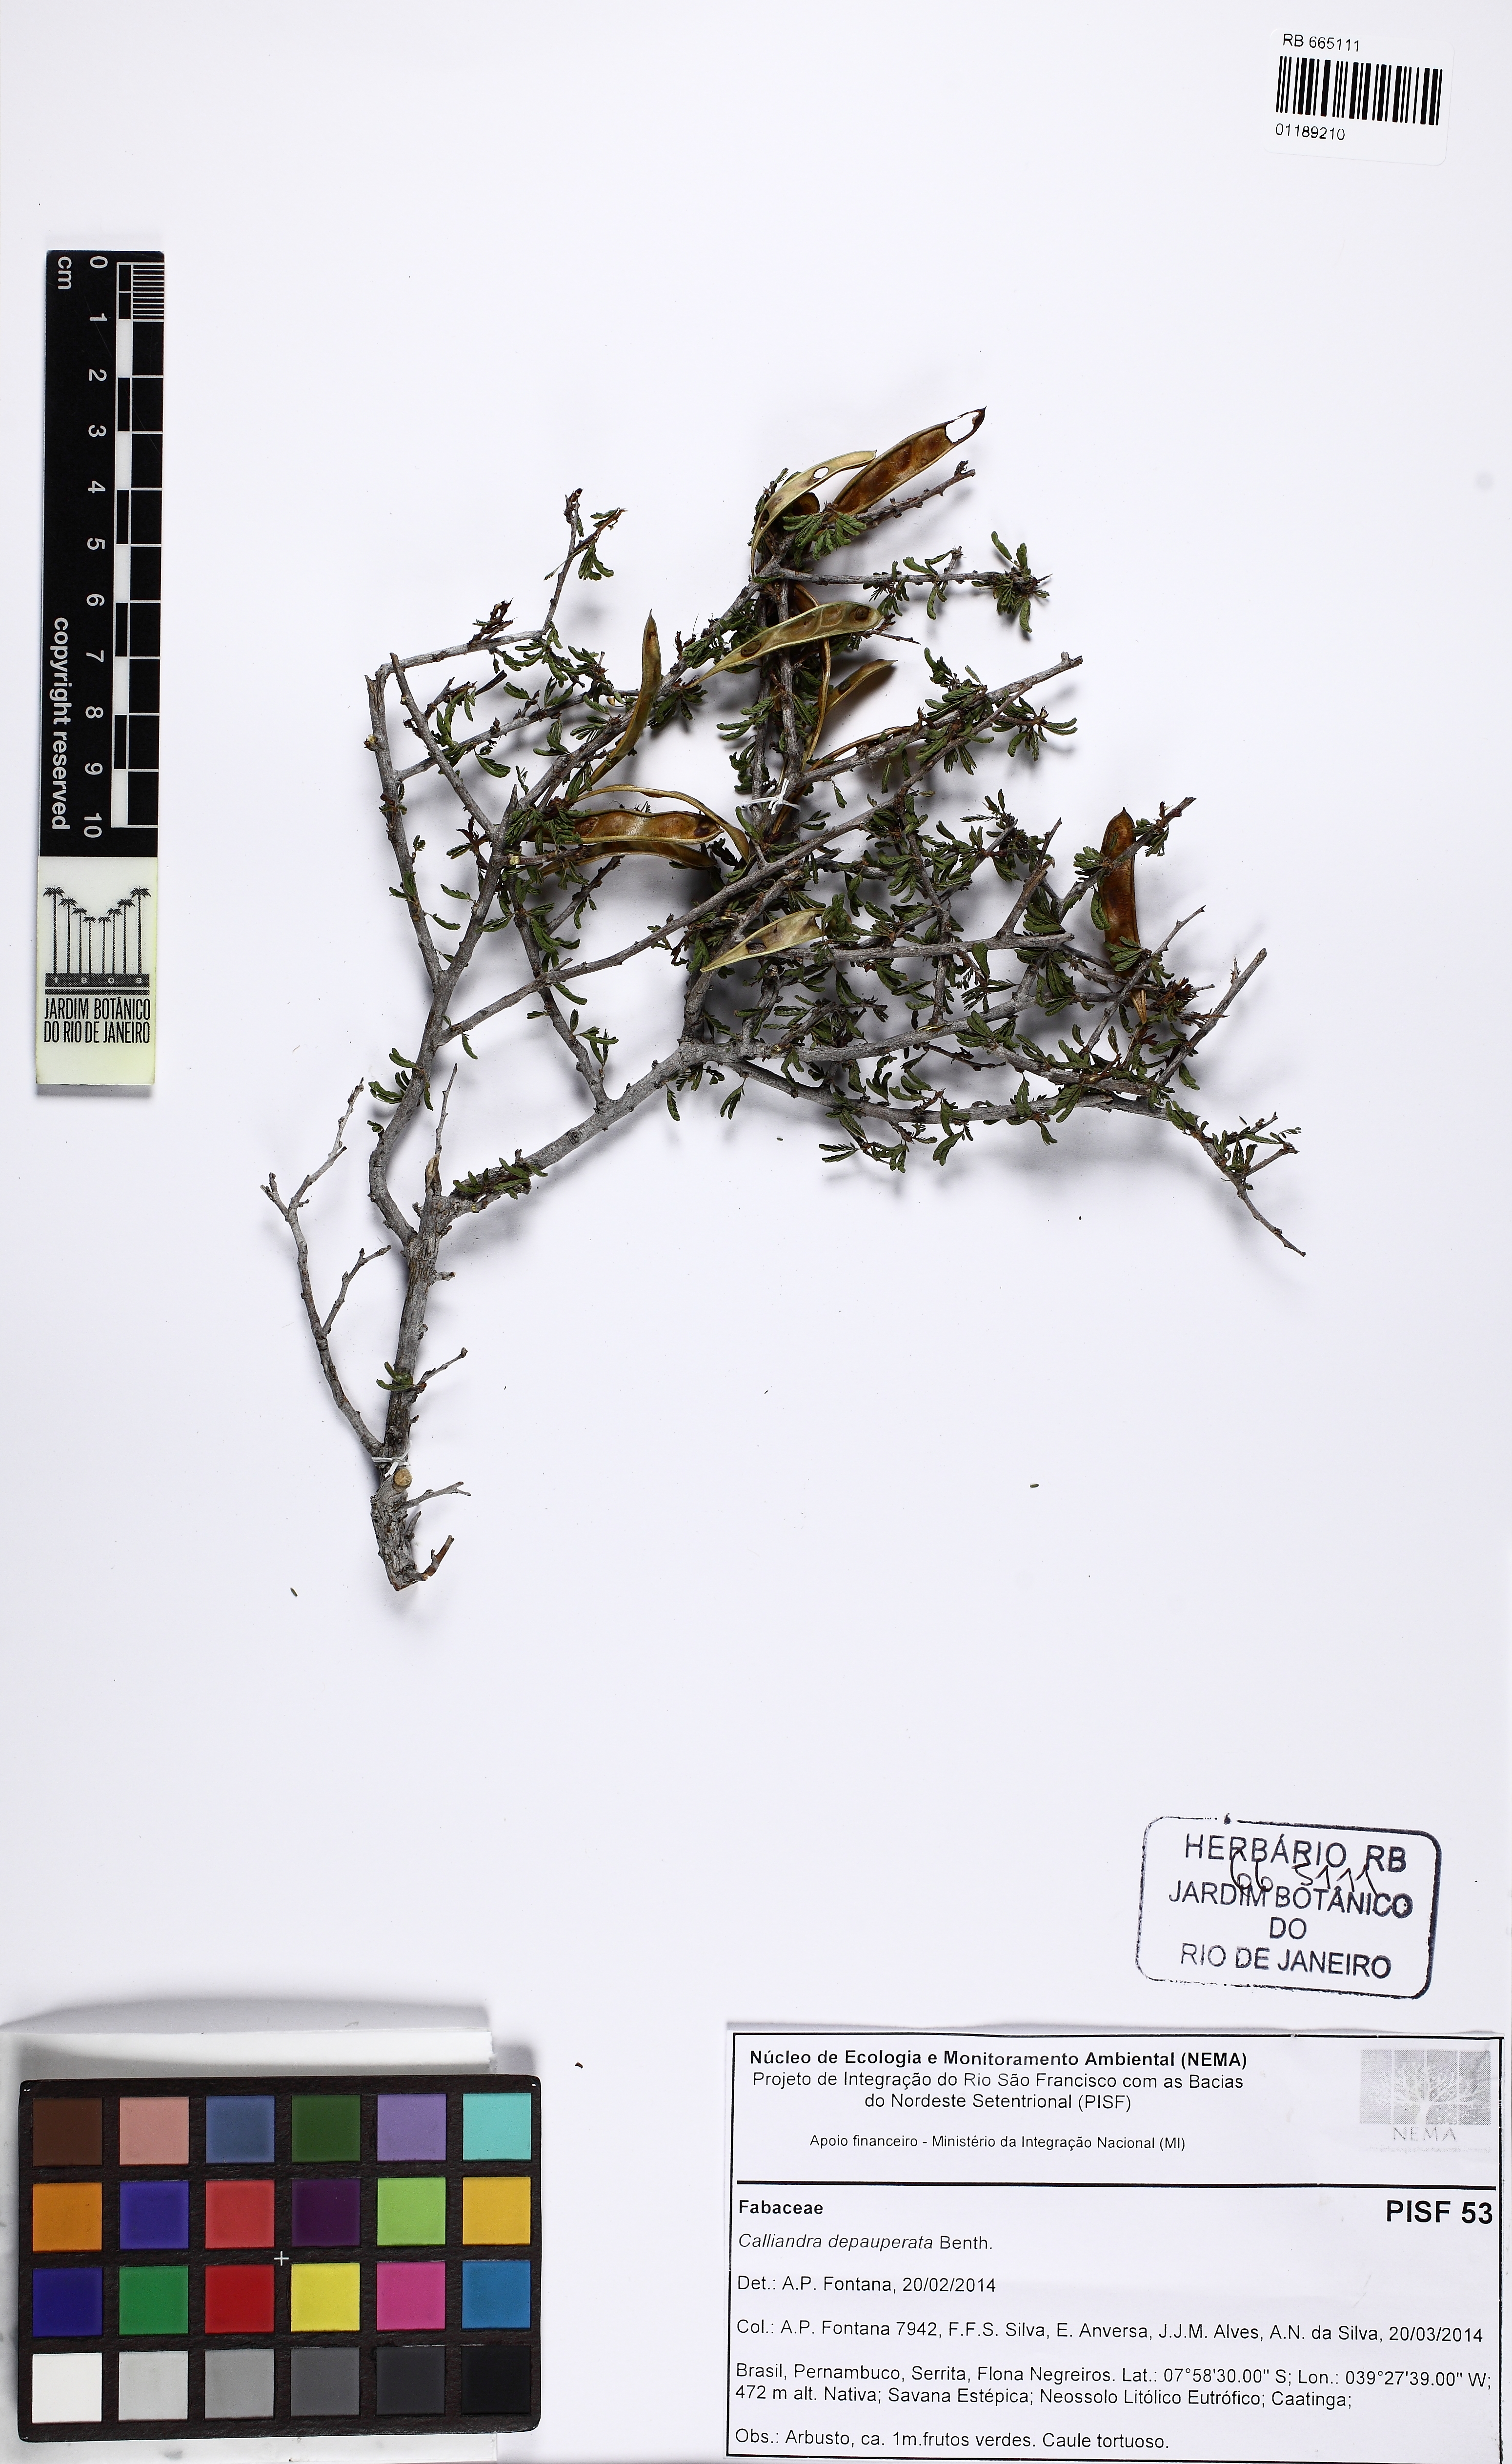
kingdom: Plantae
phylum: Tracheophyta
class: Magnoliopsida
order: Fabales
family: Fabaceae
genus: Calliandra
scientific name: Calliandra depauperata
